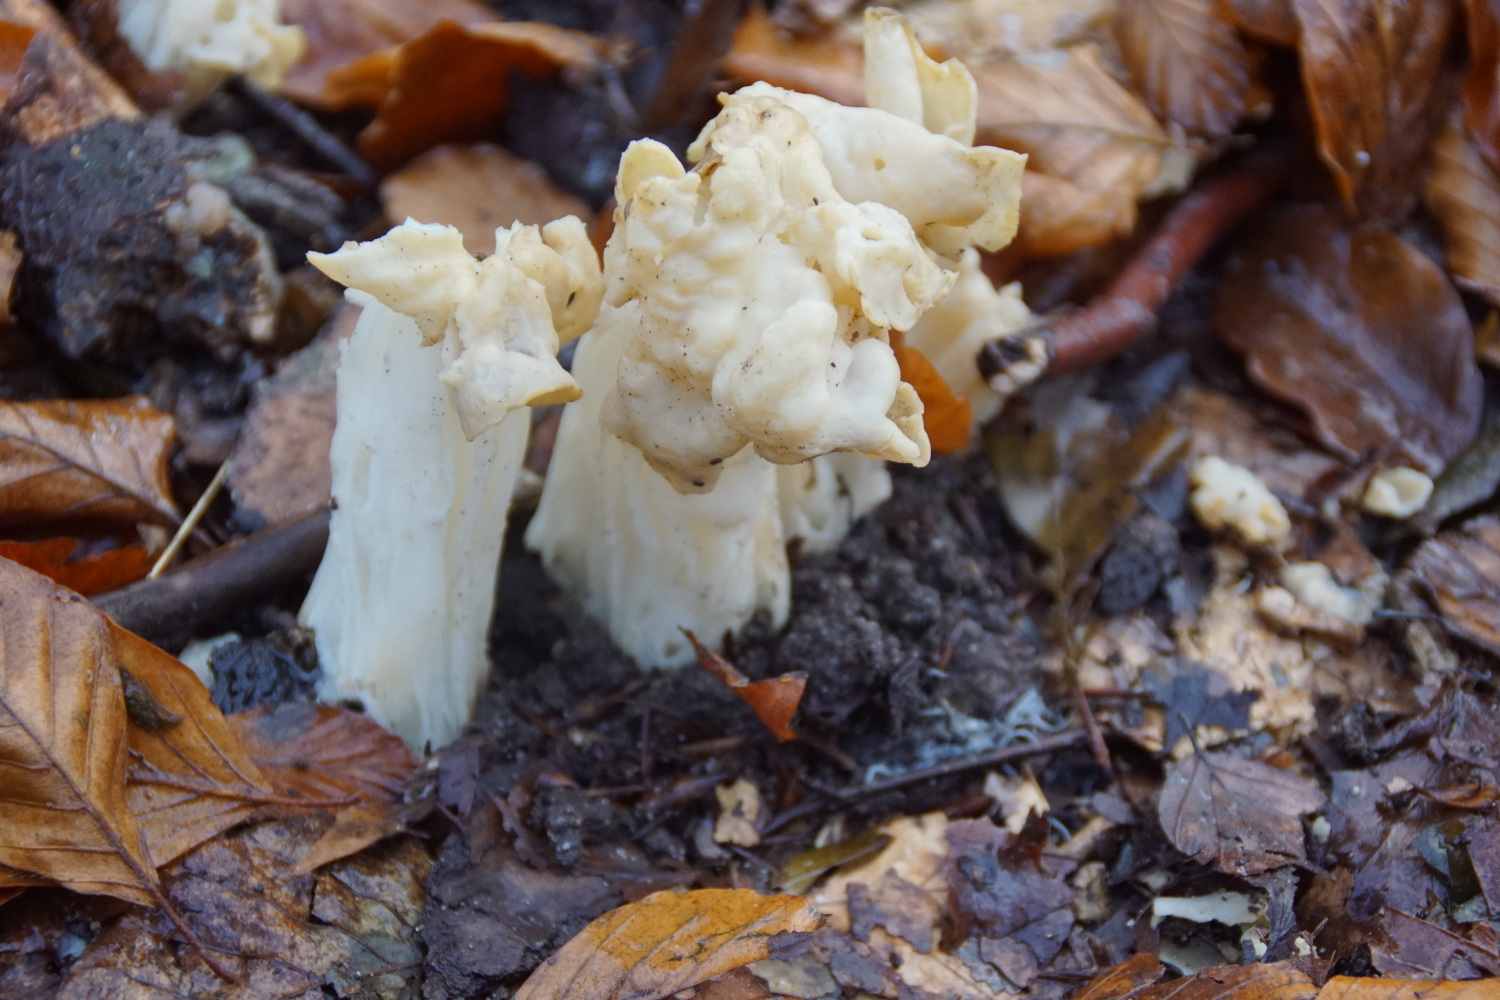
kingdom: Fungi
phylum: Ascomycota
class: Pezizomycetes
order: Pezizales
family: Helvellaceae
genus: Helvella
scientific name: Helvella crispa
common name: kruset foldhat
